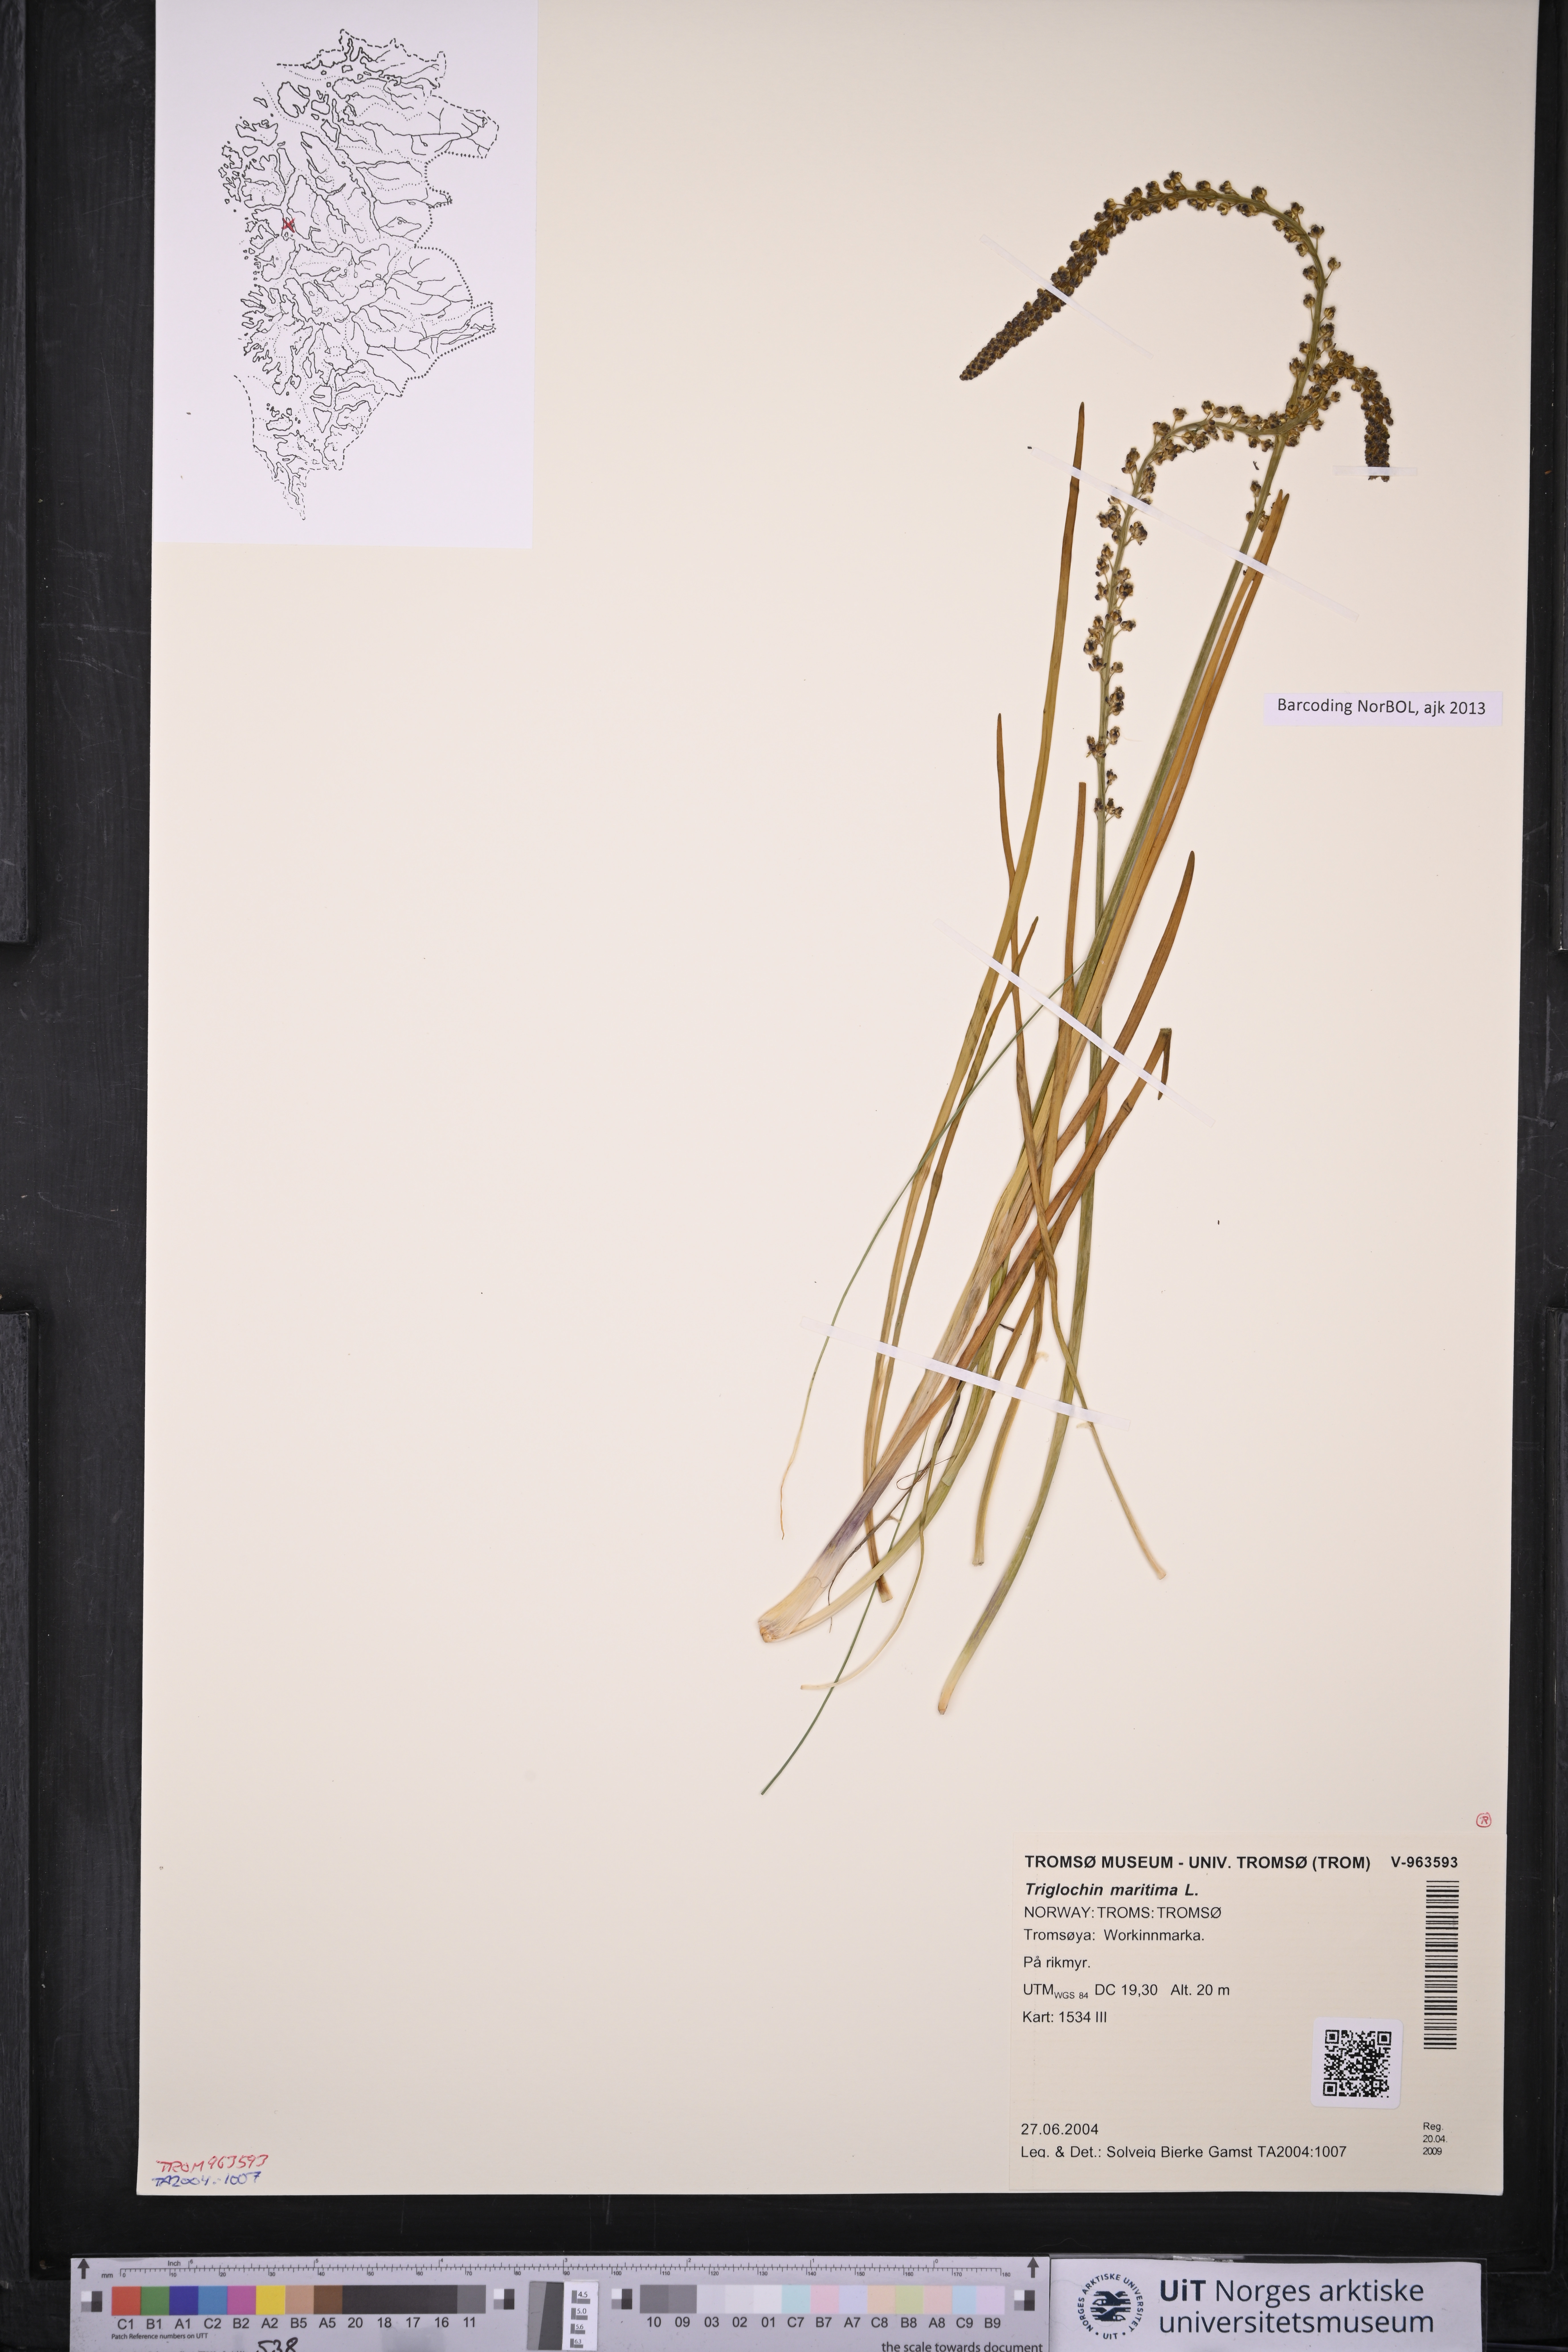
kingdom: Plantae
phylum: Tracheophyta
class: Liliopsida
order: Alismatales
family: Juncaginaceae
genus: Triglochin
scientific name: Triglochin maritima
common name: Sea arrowgrass
